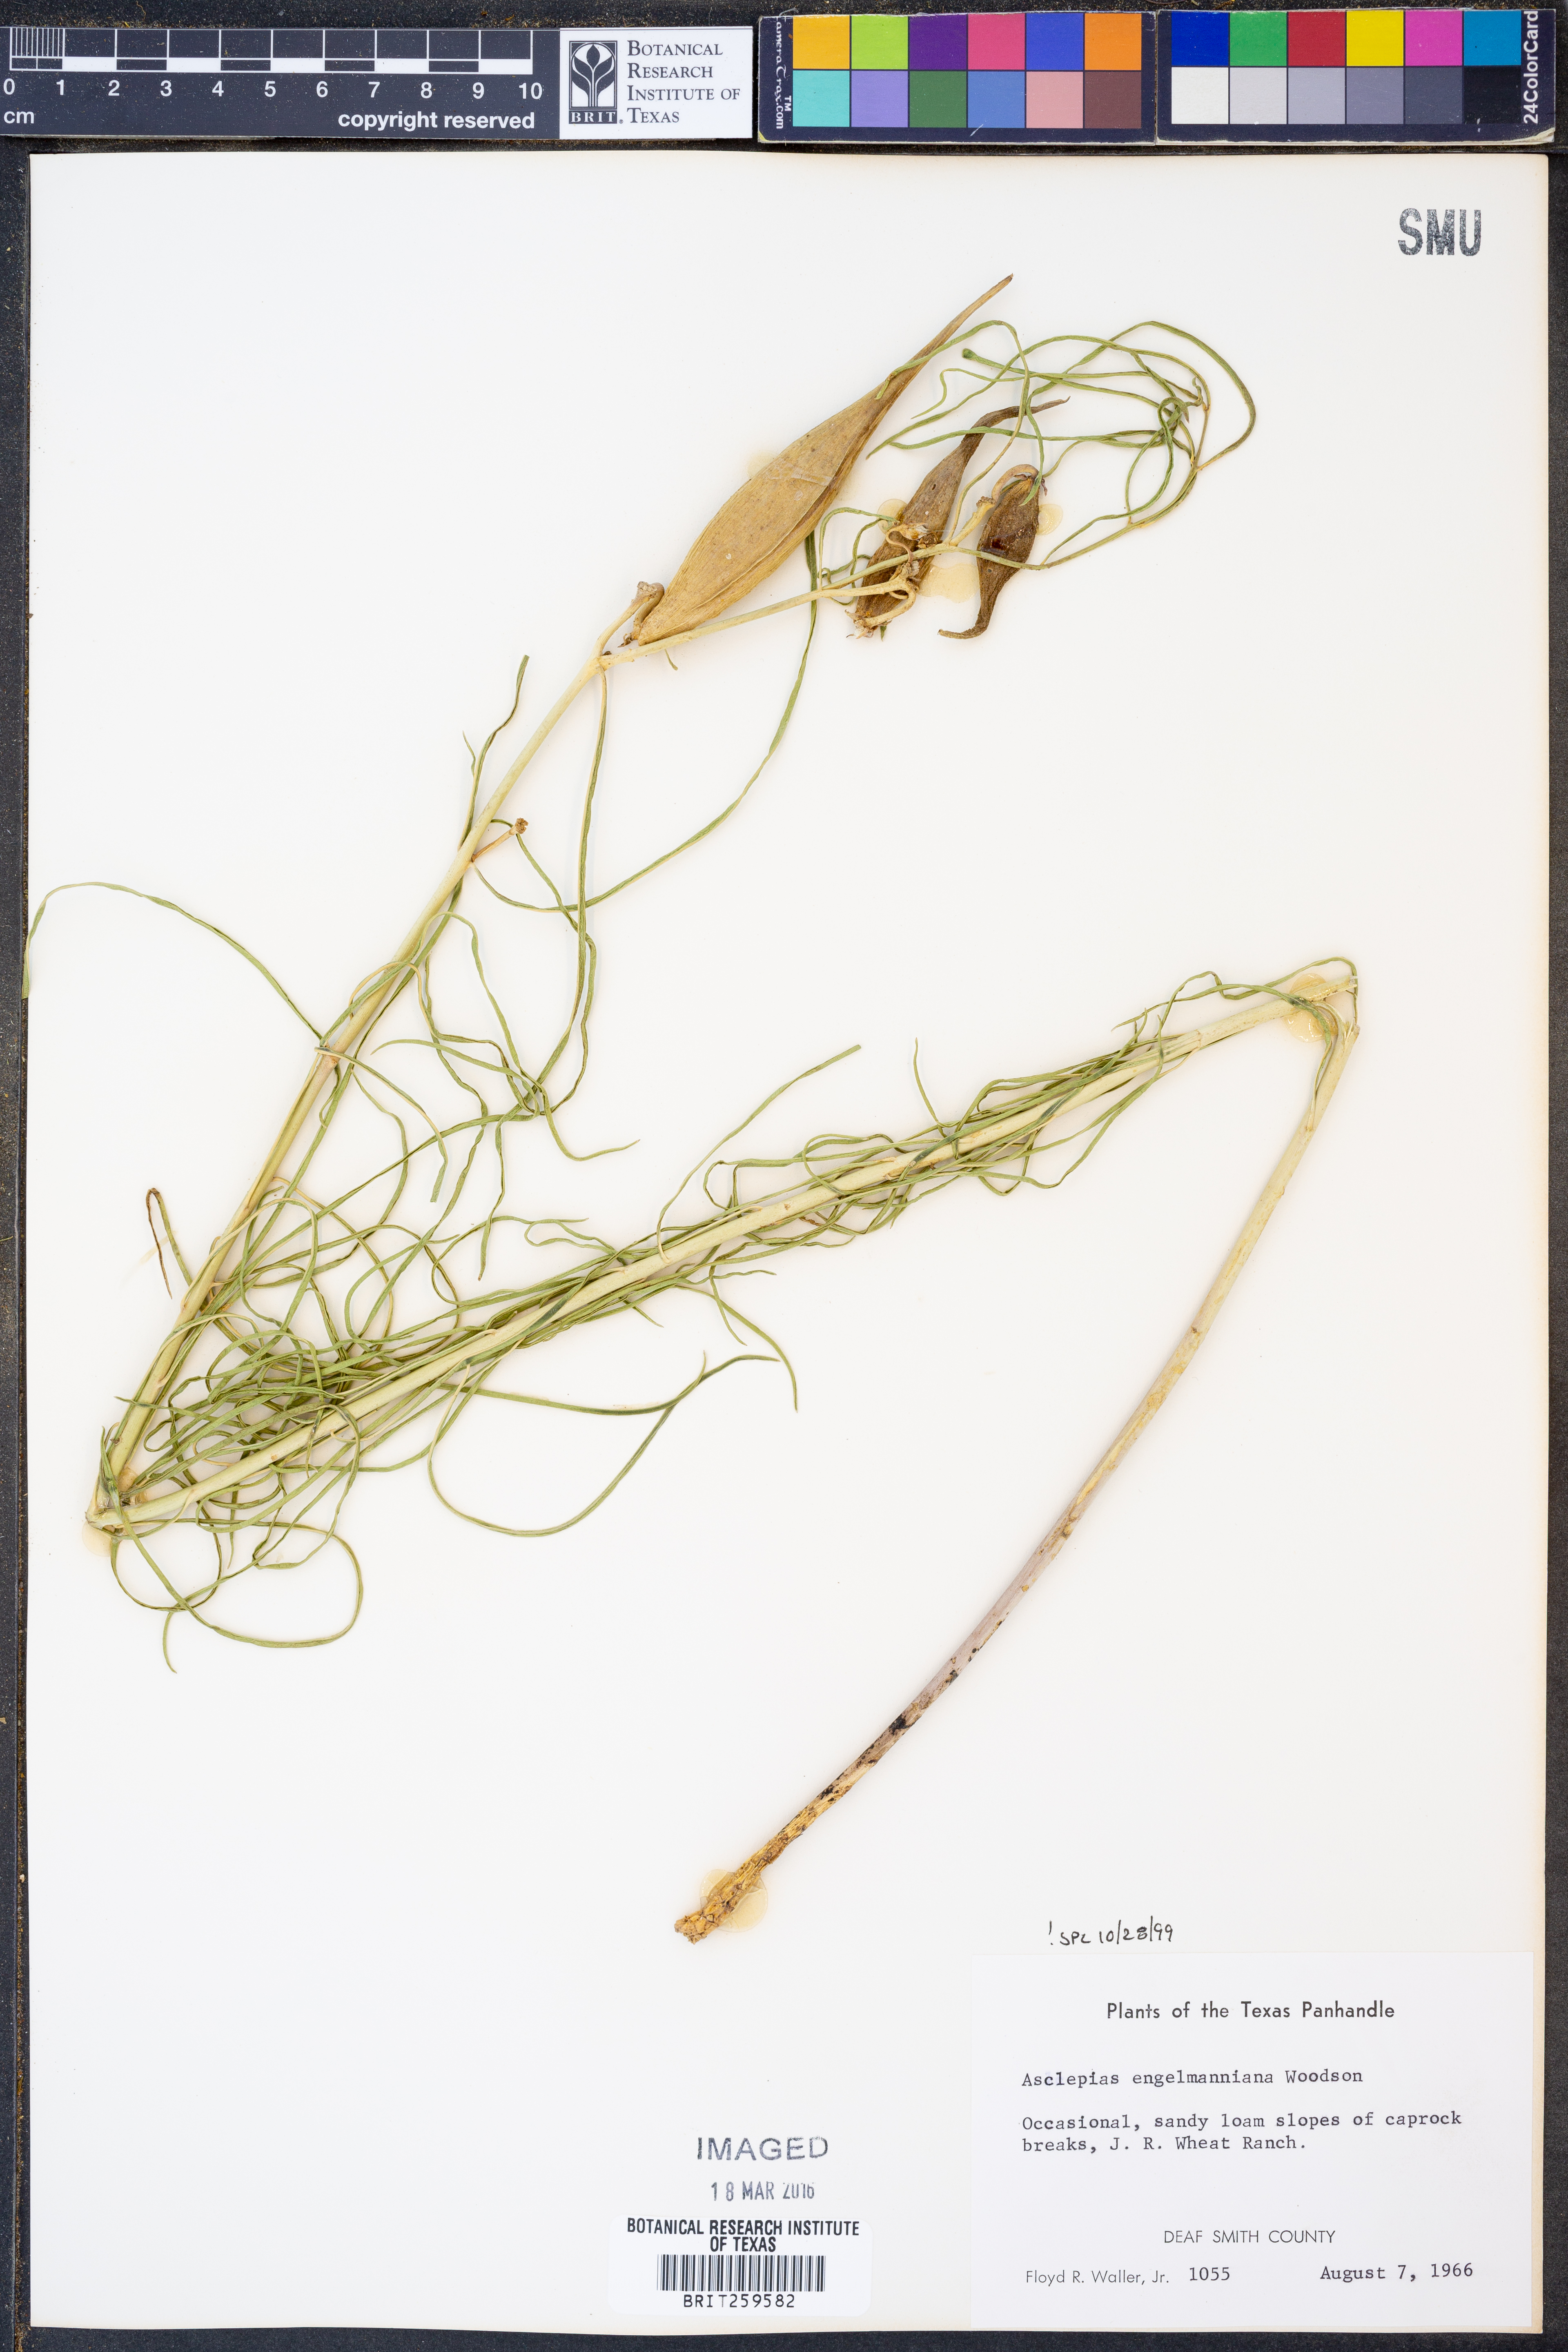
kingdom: Plantae
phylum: Tracheophyta
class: Magnoliopsida
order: Gentianales
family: Apocynaceae
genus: Asclepias
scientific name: Asclepias engelmanniana
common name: Engelmann's milkweed
